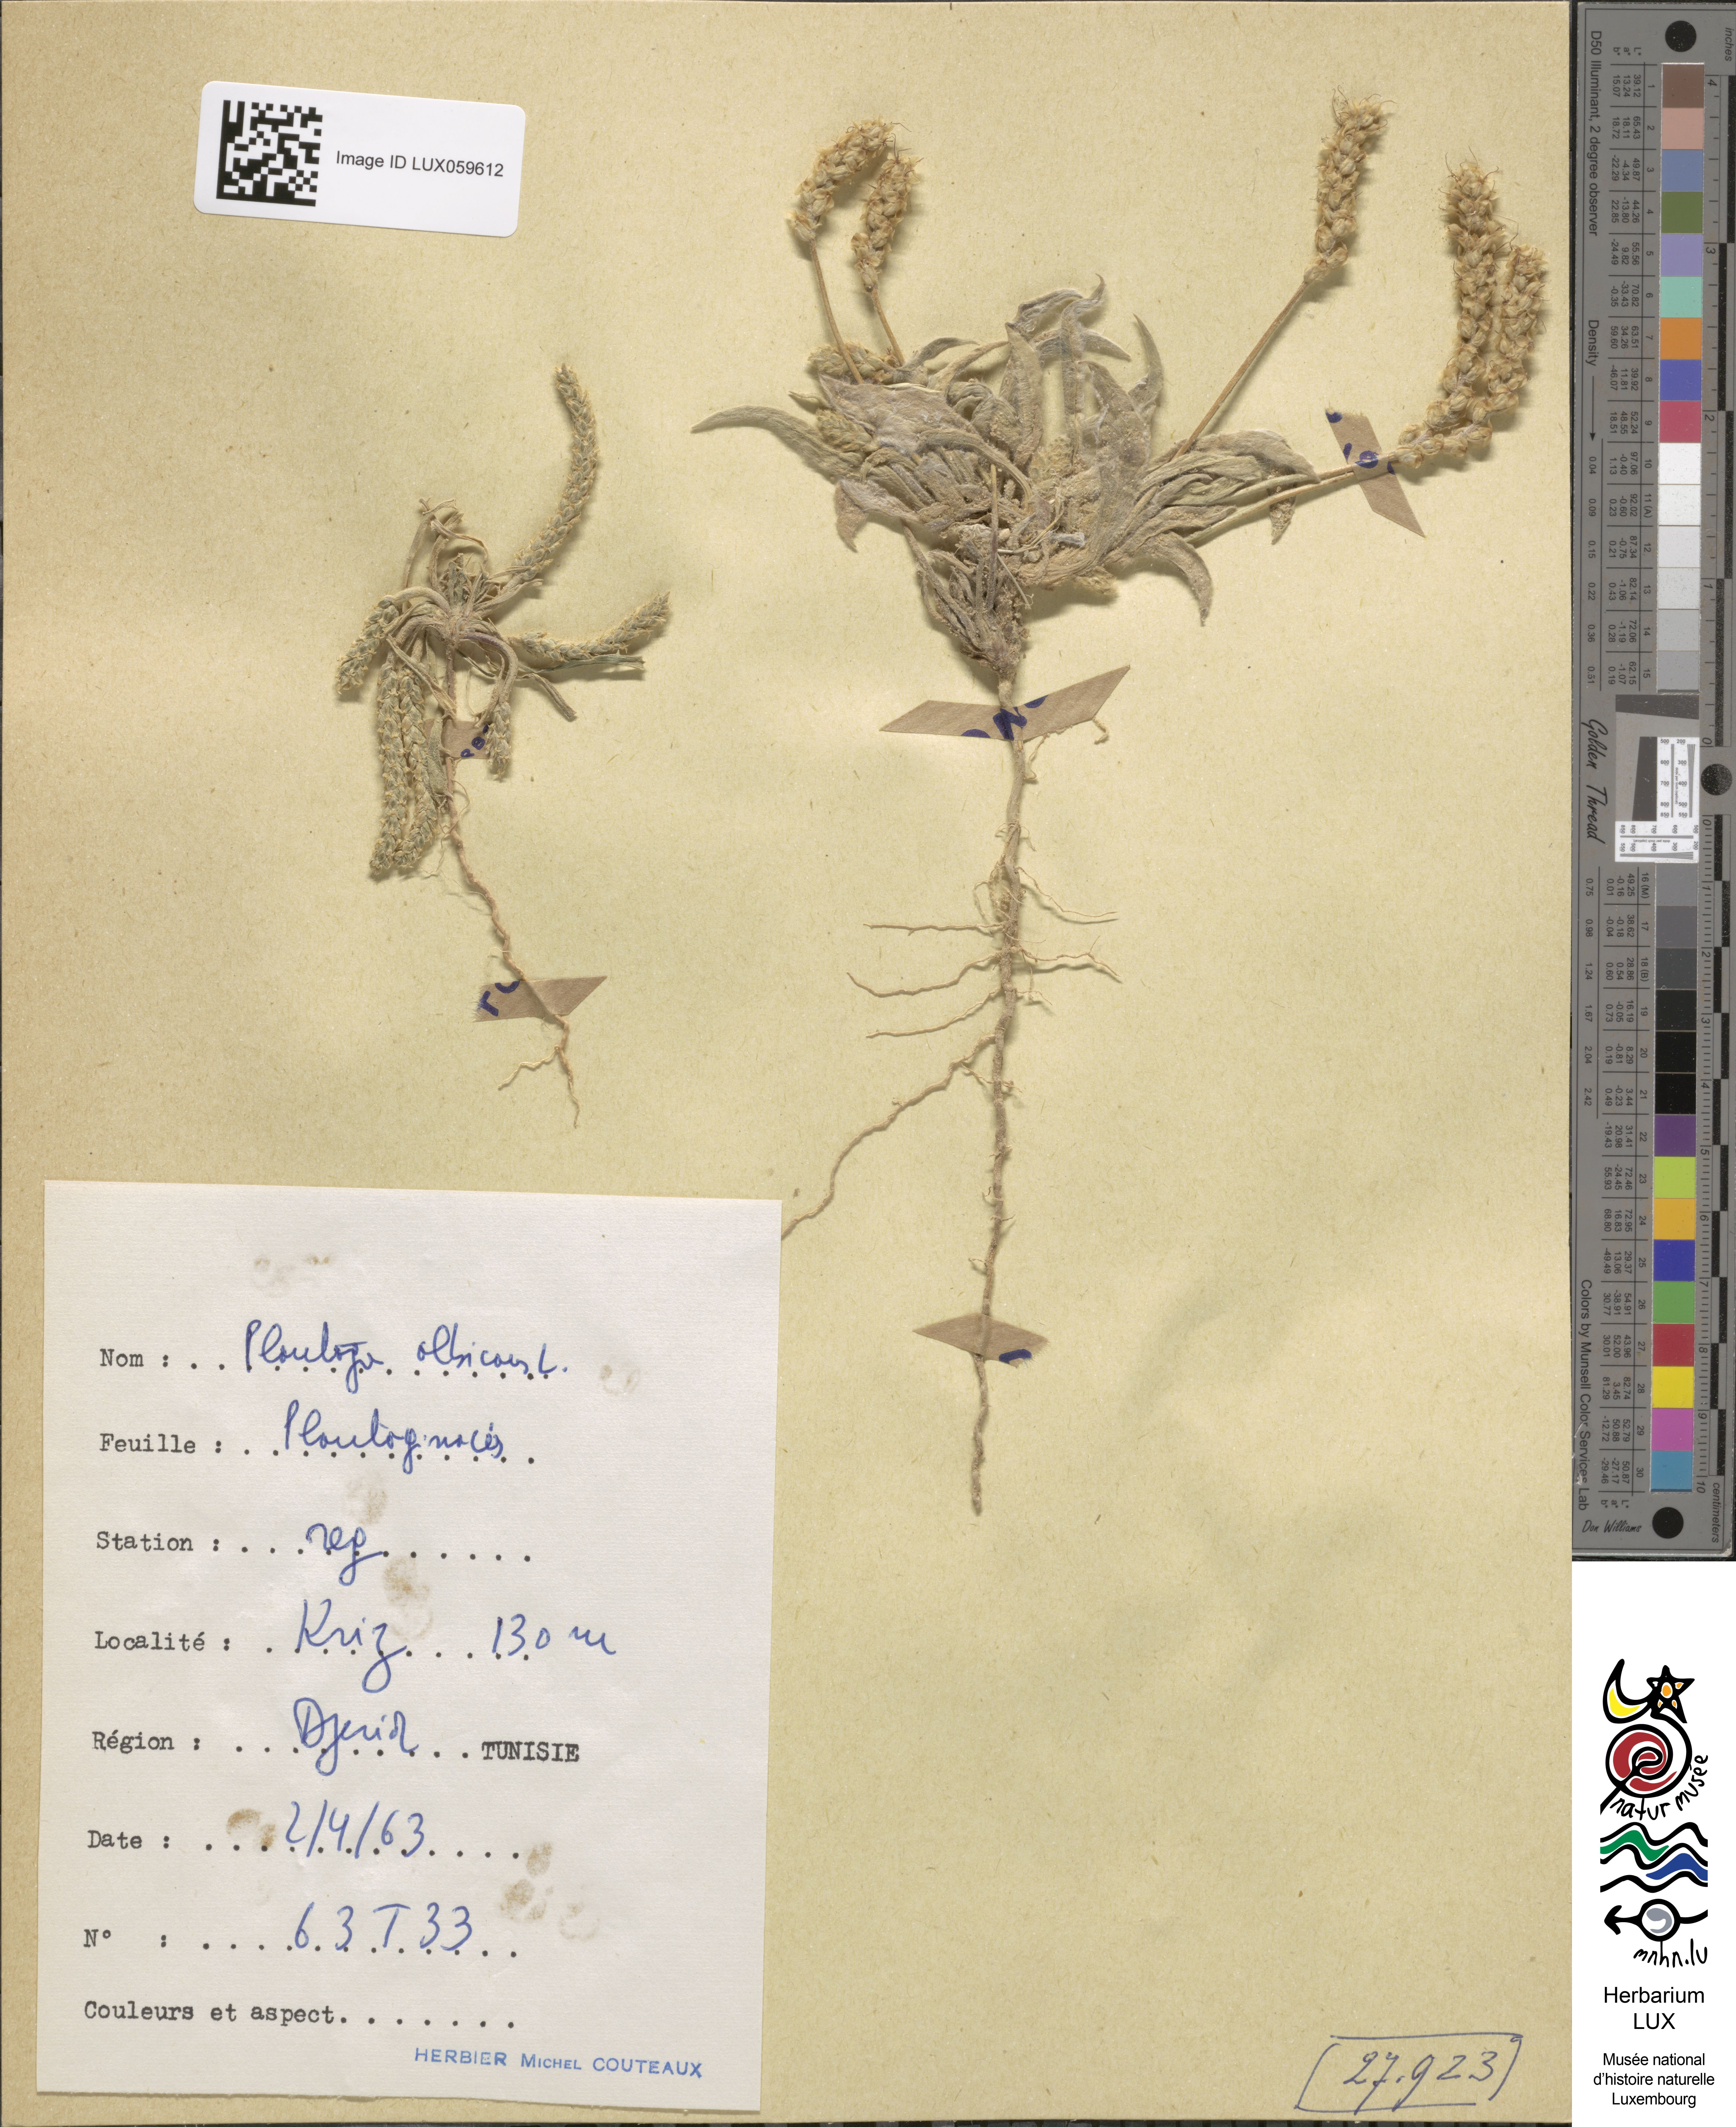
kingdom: Plantae
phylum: Tracheophyta
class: Magnoliopsida
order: Lamiales
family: Plantaginaceae
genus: Plantago
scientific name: Plantago albicans
